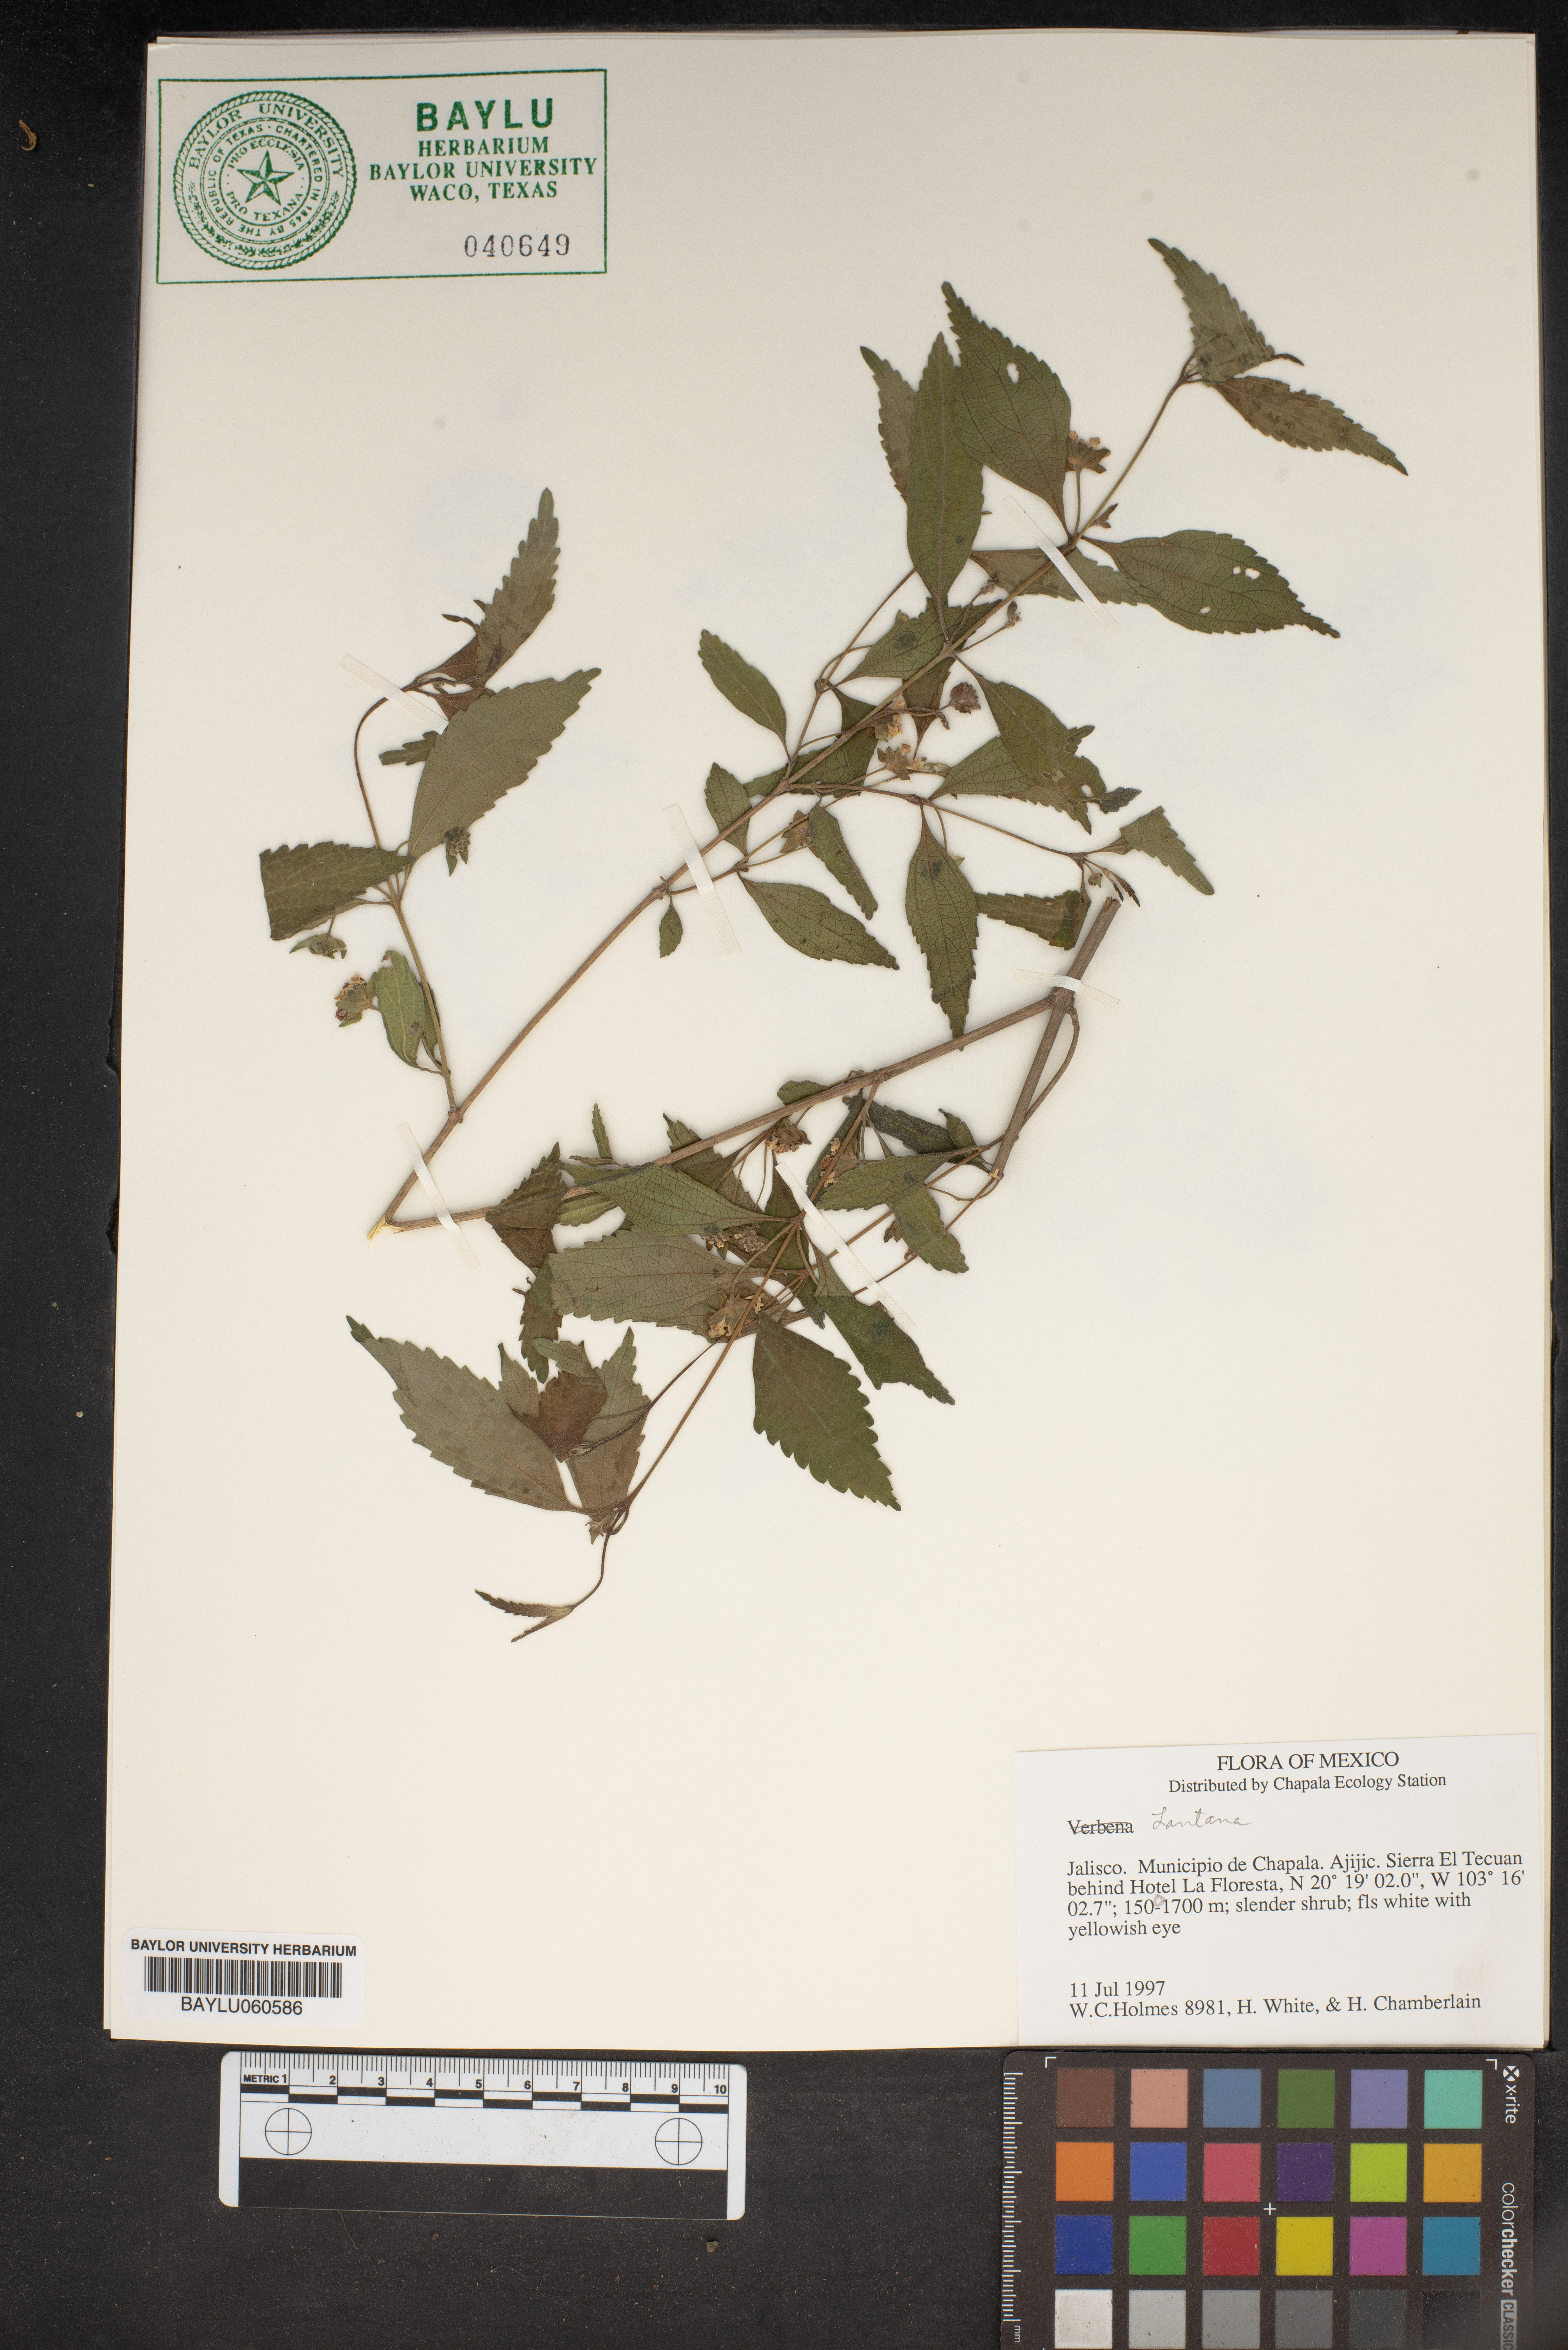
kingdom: Plantae
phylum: Tracheophyta
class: Magnoliopsida
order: Lamiales
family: Verbenaceae
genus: Lantana
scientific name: Lantana
